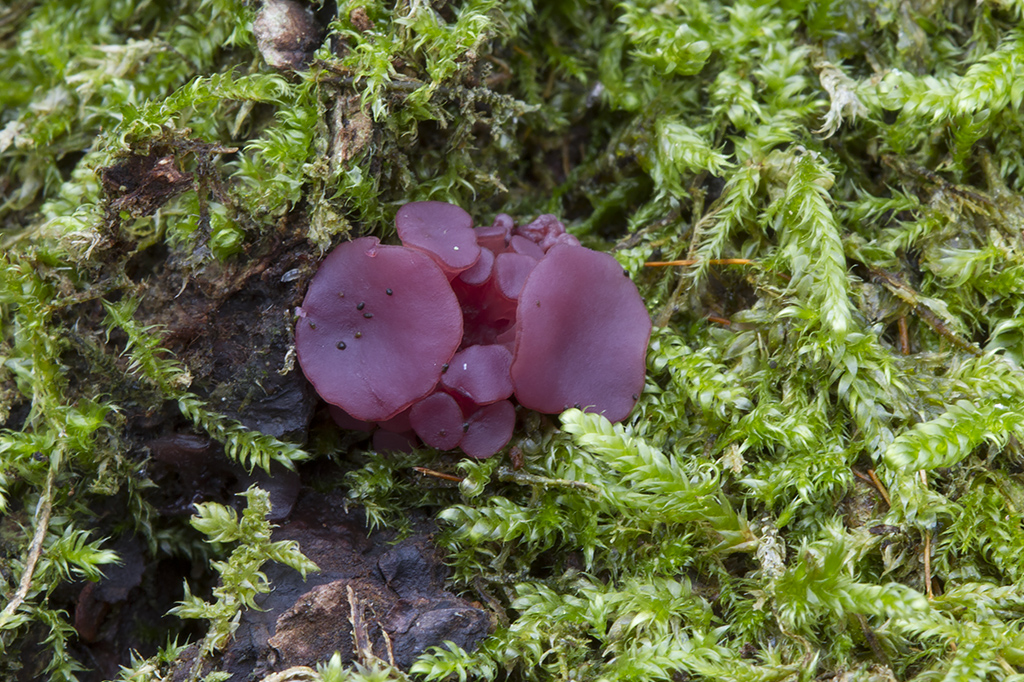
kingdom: Fungi
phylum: Ascomycota
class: Leotiomycetes
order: Helotiales
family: Gelatinodiscaceae
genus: Ascocoryne
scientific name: Ascocoryne sarcoides
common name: rødlilla sejskive
